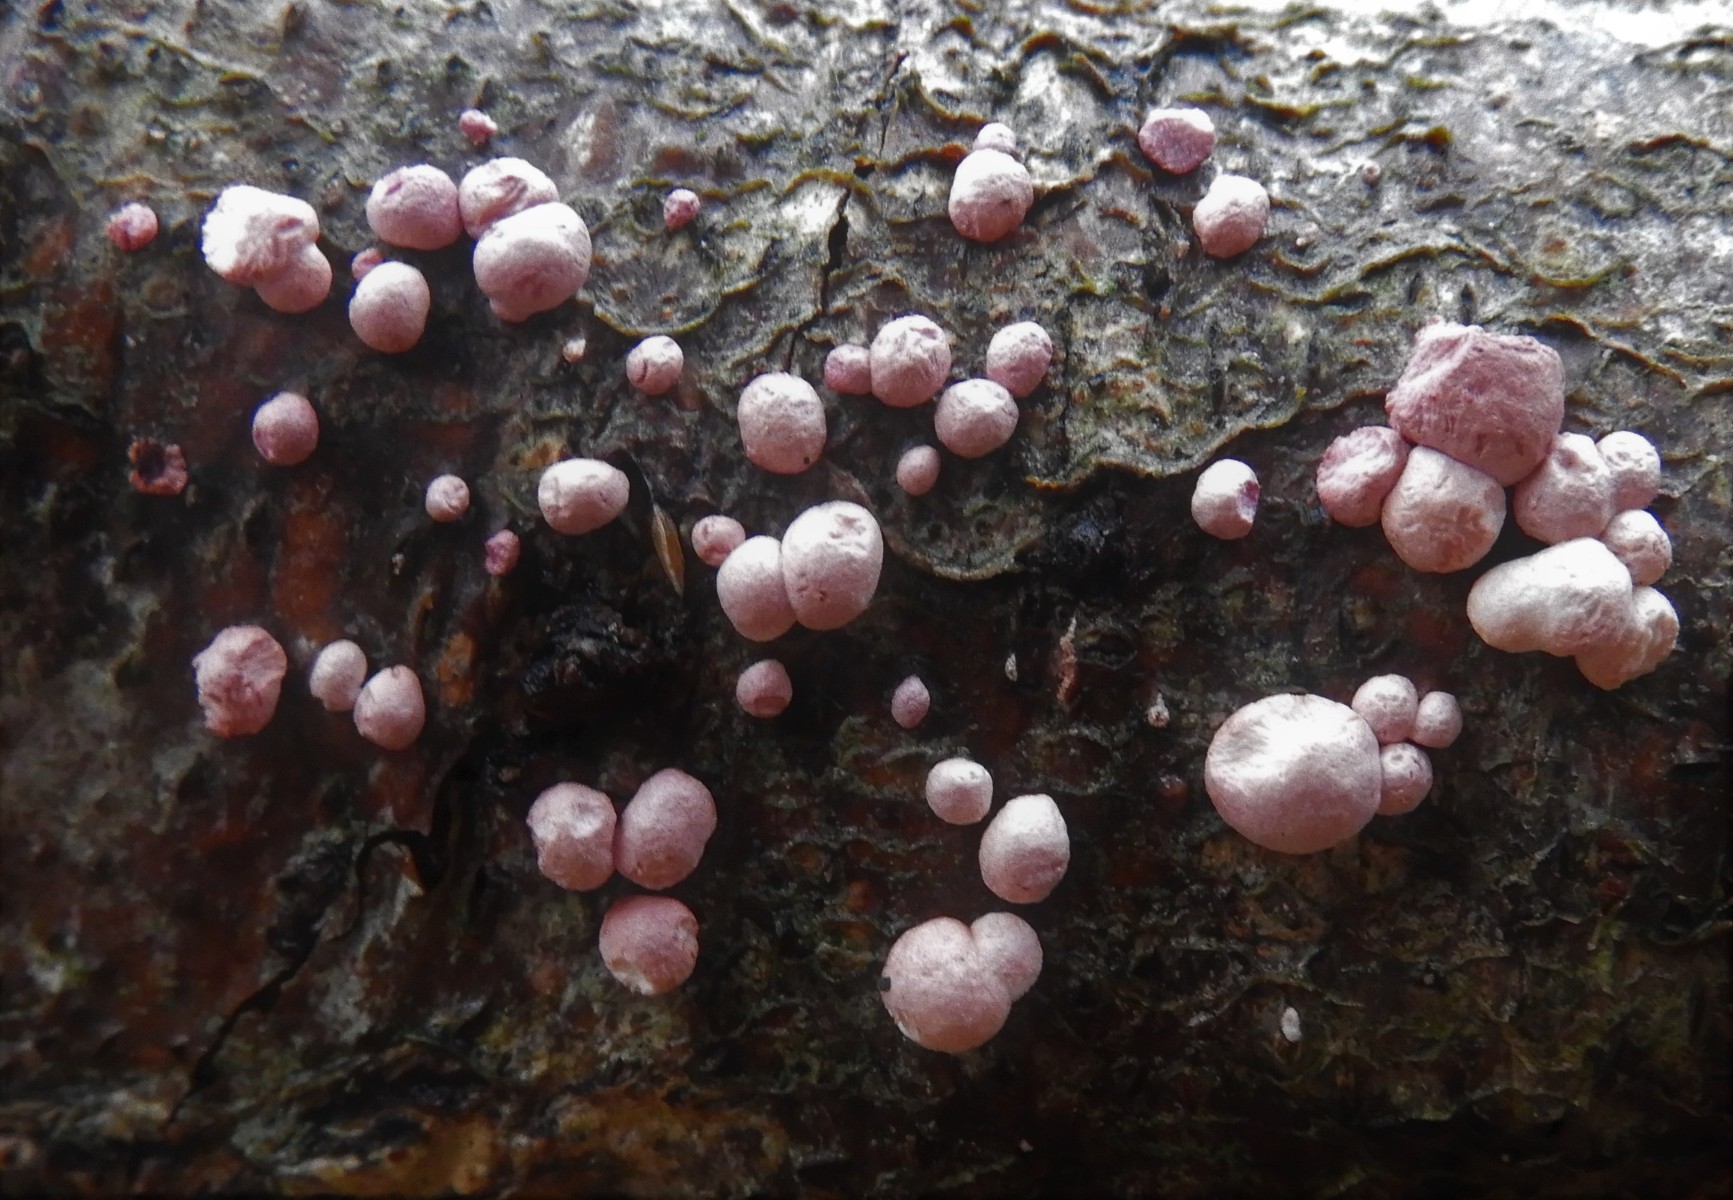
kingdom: Fungi
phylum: Ascomycota
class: Sordariomycetes
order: Hypocreales
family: Hypocreaceae
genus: Trichoderma
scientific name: Trichoderma europaeum
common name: rosabrun kødkerne
